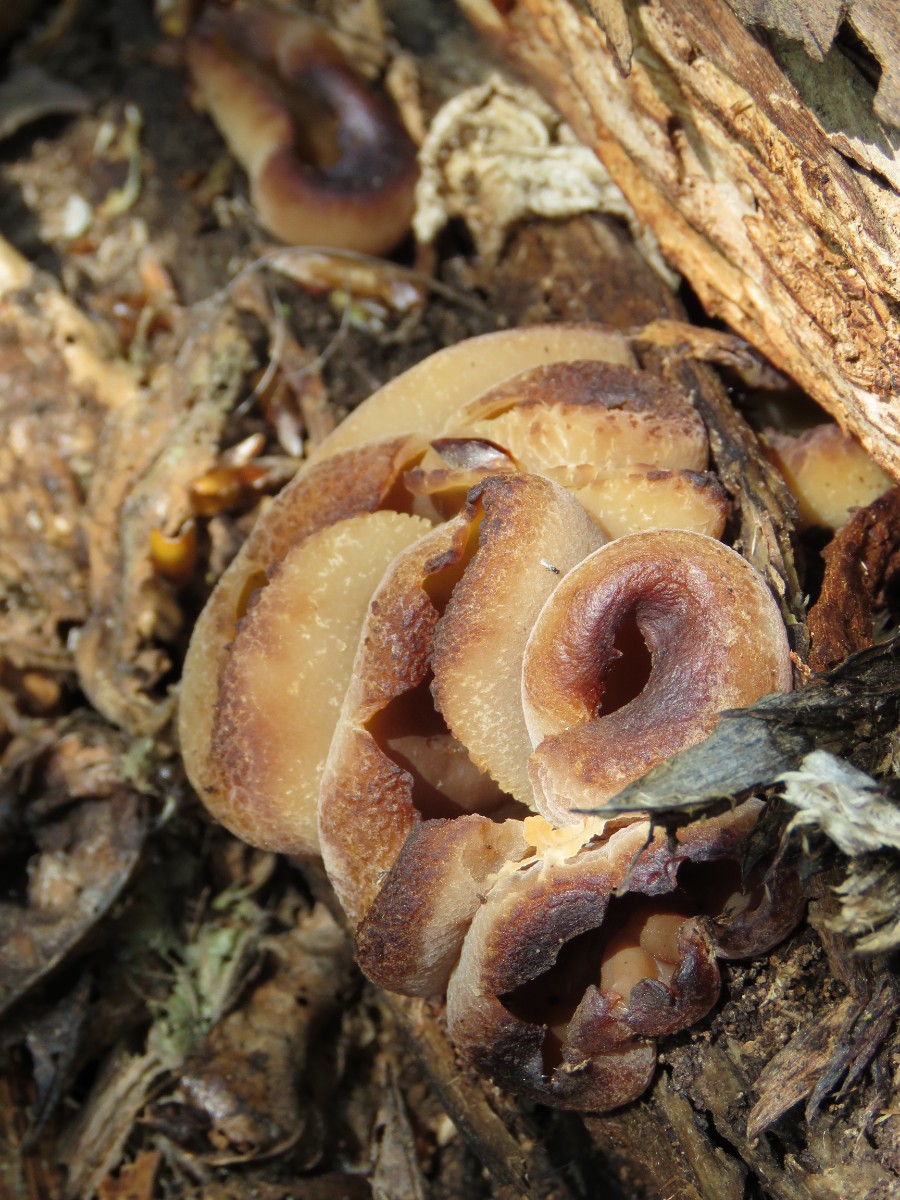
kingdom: Fungi
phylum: Ascomycota
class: Pezizomycetes
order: Pezizales
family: Pezizaceae
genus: Peziza
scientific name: Peziza varia
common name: Ved-bægersvamp
